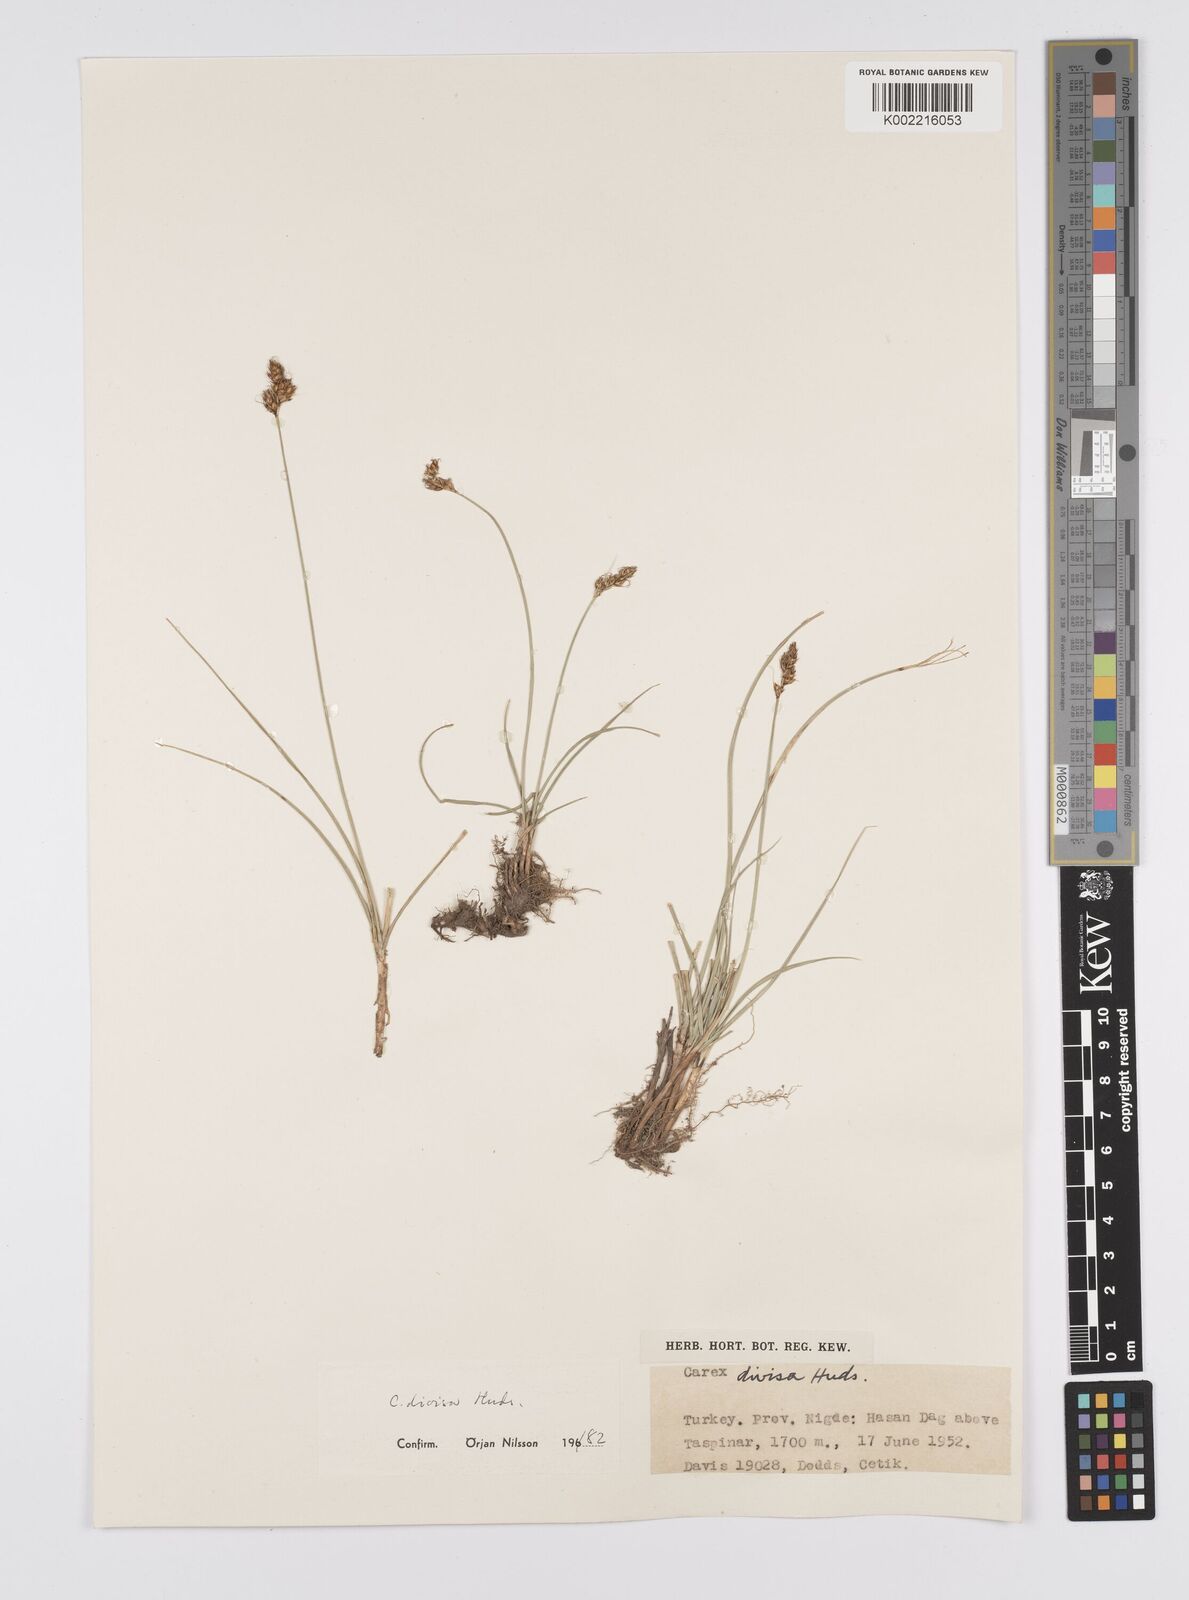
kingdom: Plantae
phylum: Tracheophyta
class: Liliopsida
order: Poales
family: Cyperaceae
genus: Carex
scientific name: Carex divisa
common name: Divided sedge
